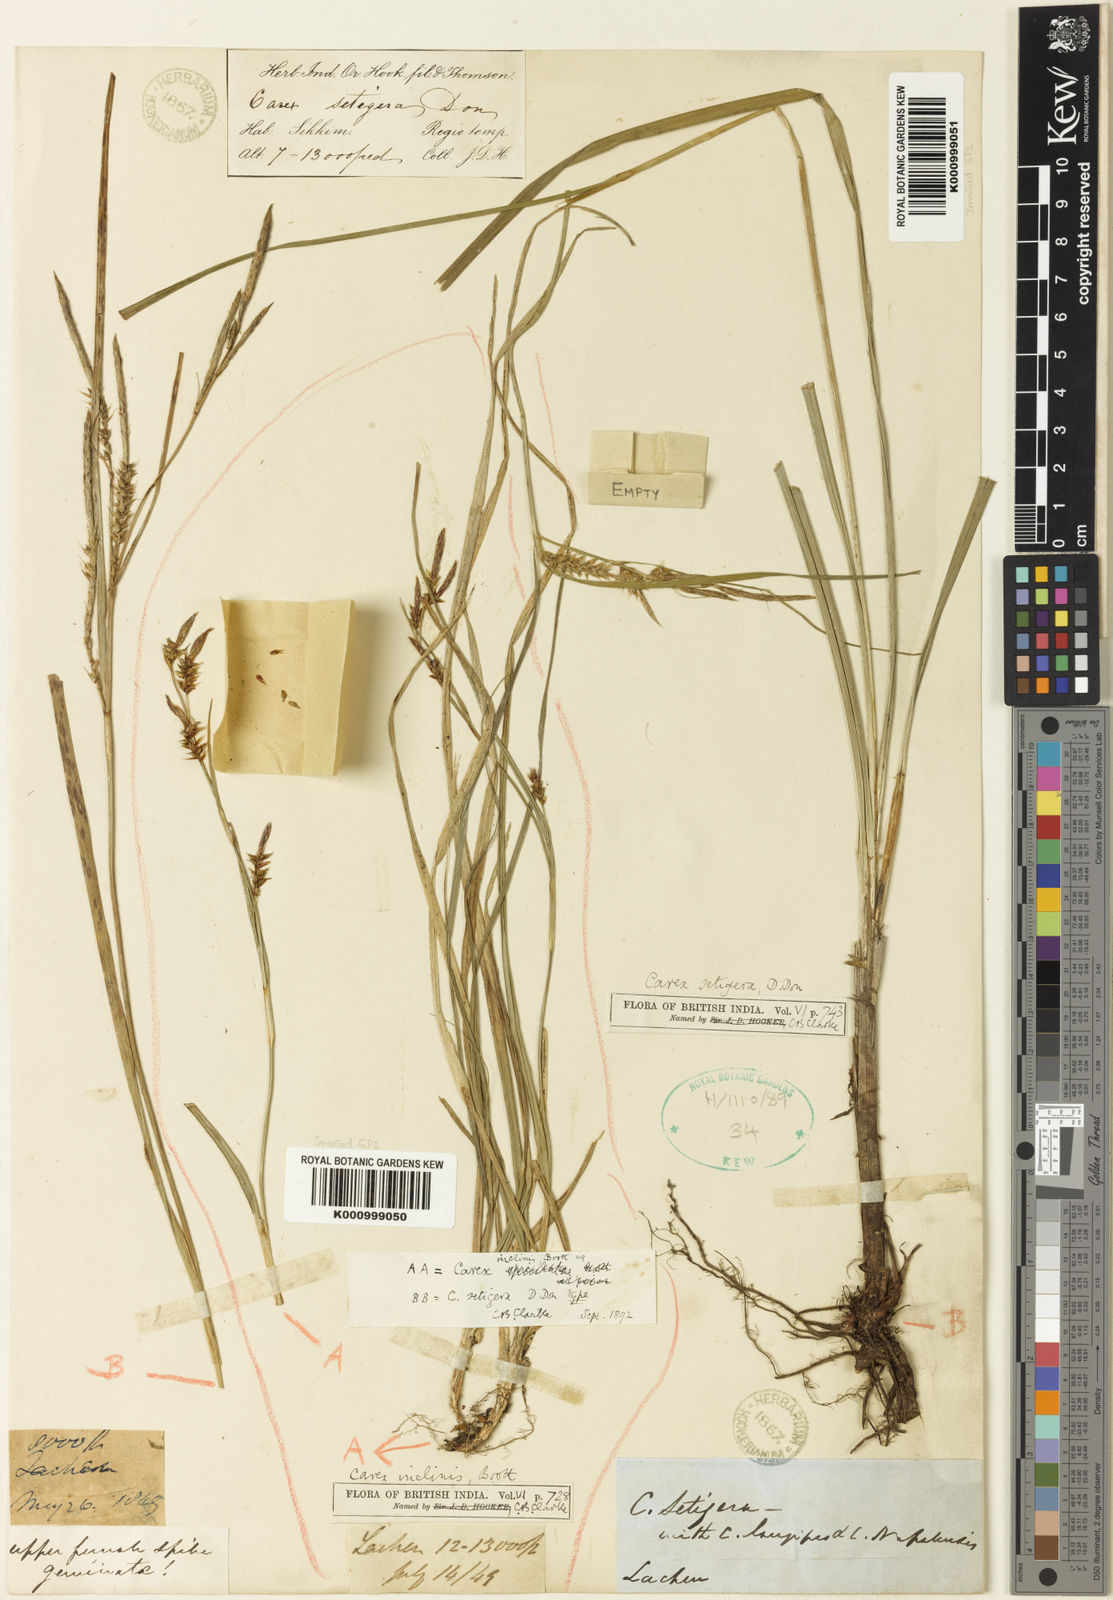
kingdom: Plantae
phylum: Tracheophyta
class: Liliopsida
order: Poales
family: Cyperaceae
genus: Carex
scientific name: Carex inclinis
